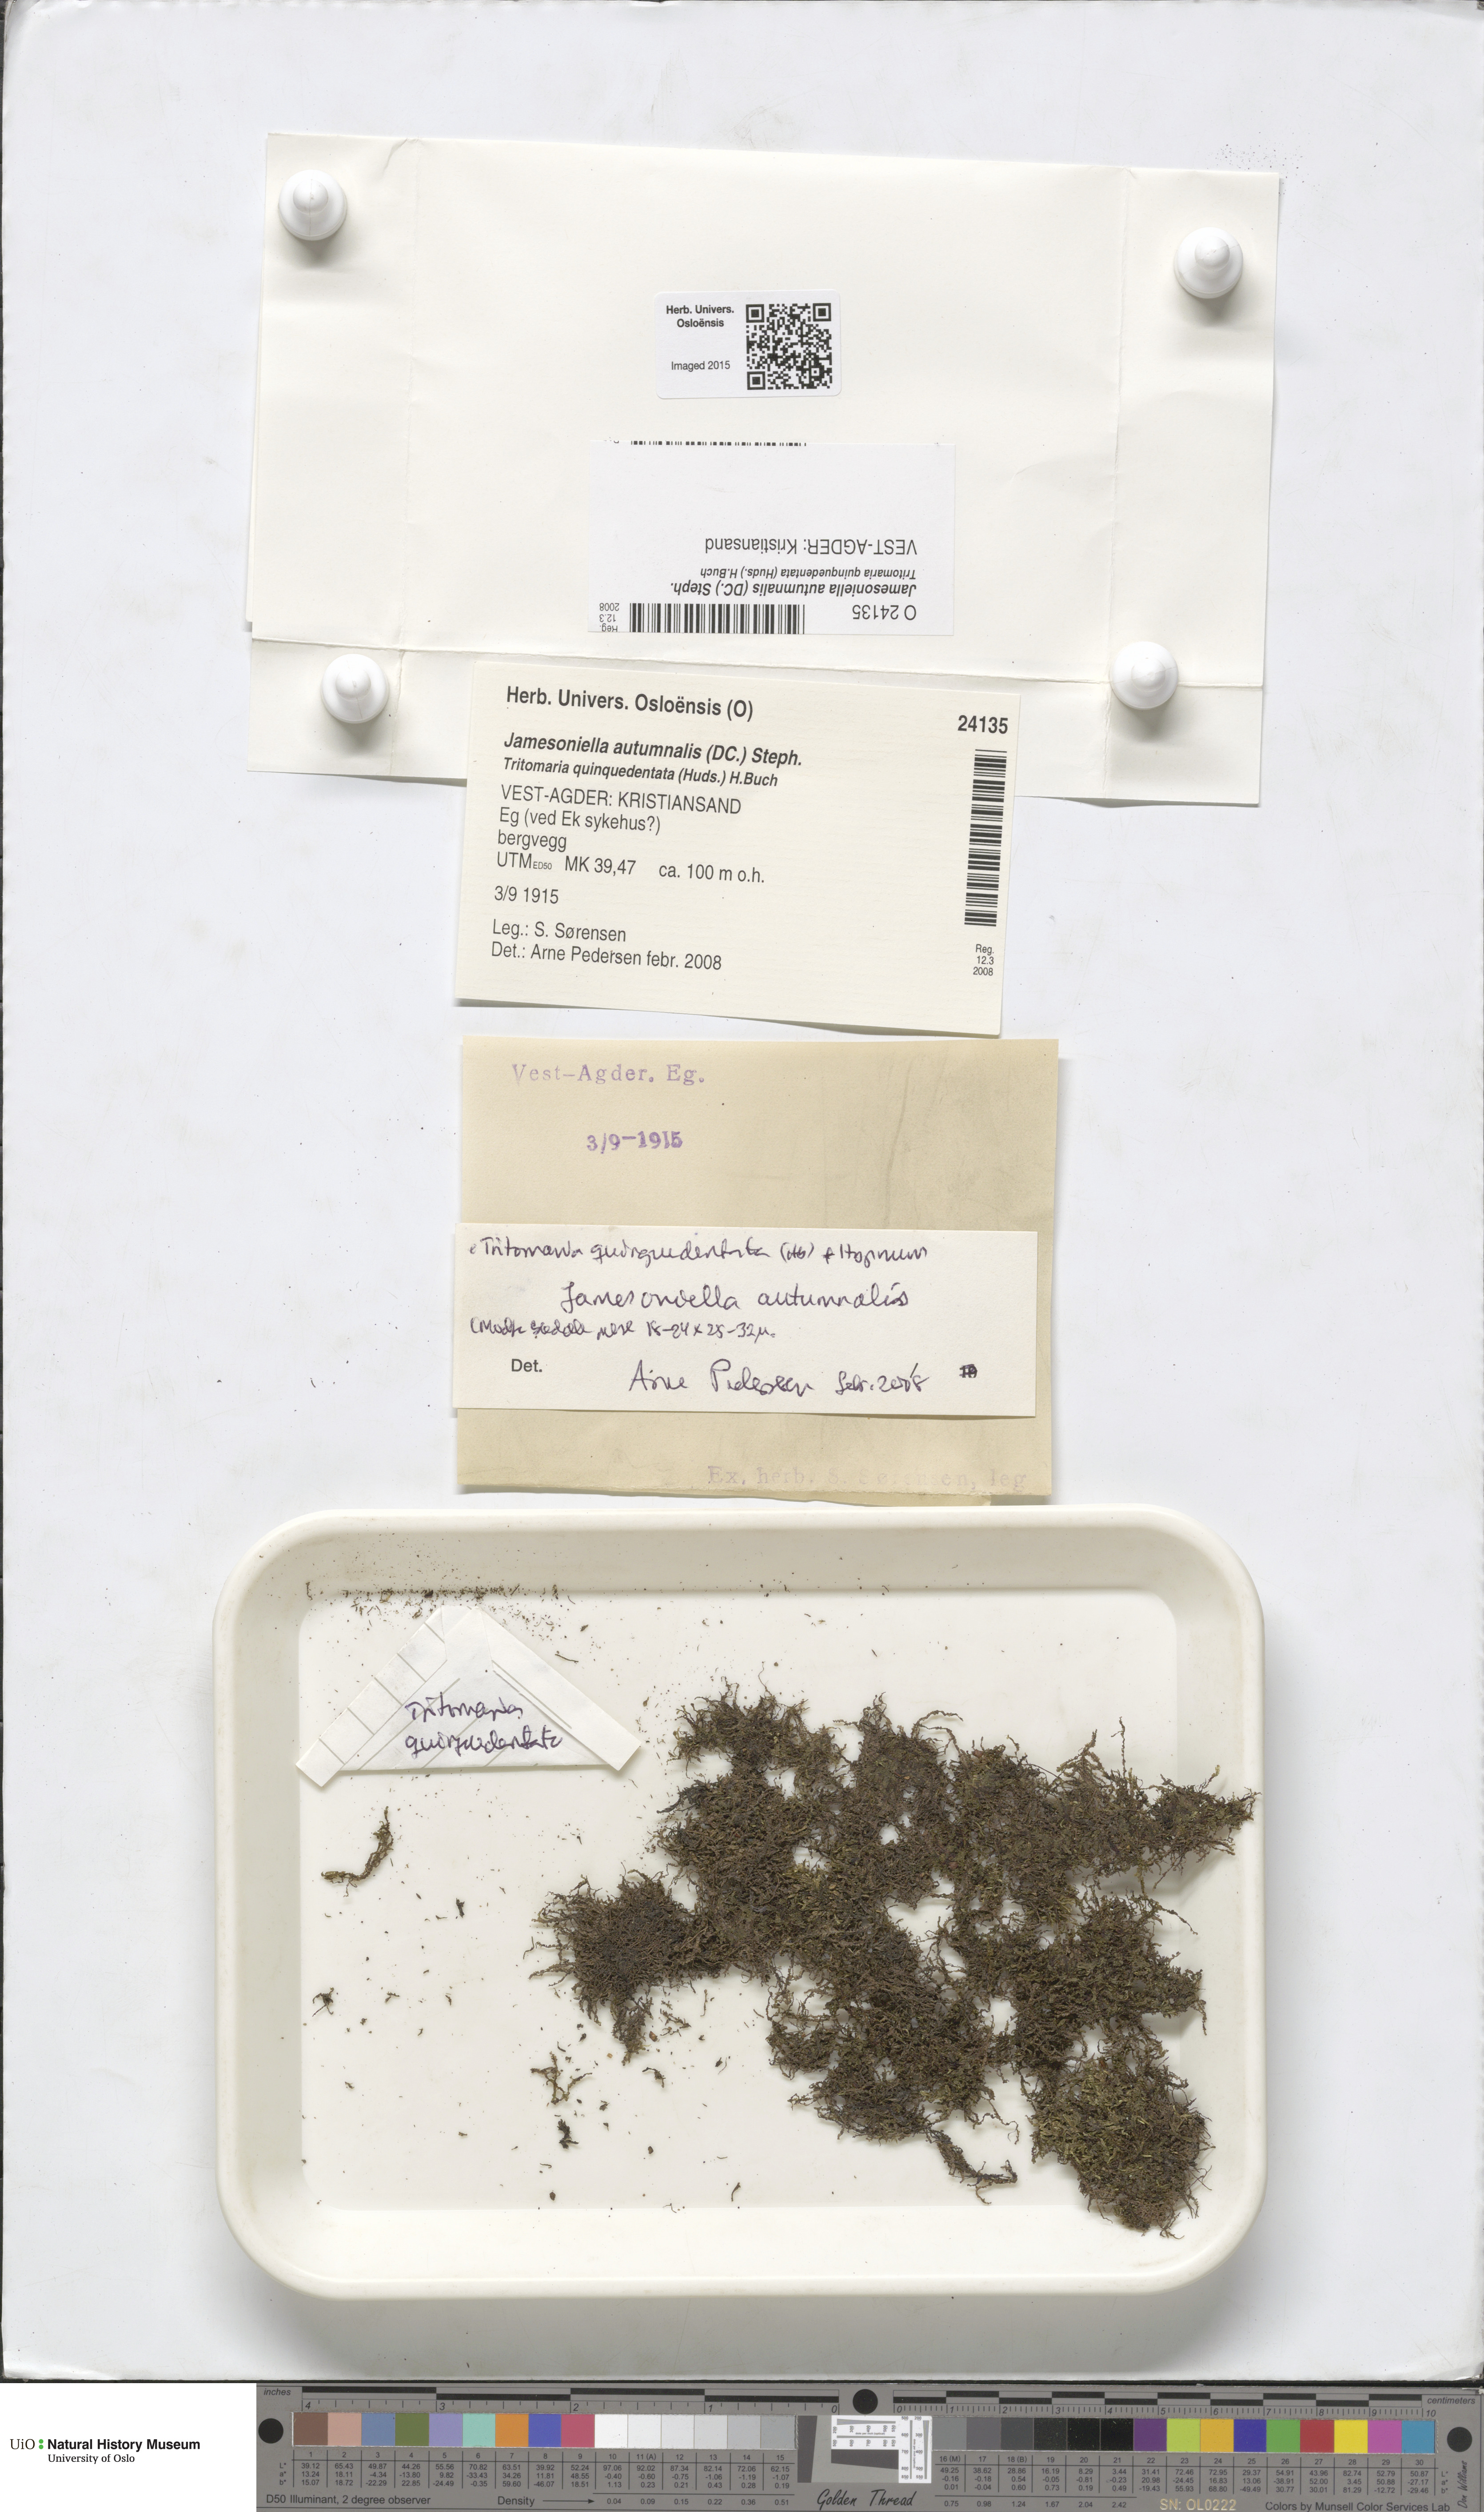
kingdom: Plantae
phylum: Marchantiophyta
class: Jungermanniopsida
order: Jungermanniales
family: Adelanthaceae
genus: Syzygiella
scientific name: Syzygiella autumnalis
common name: Jameson's liverwort
